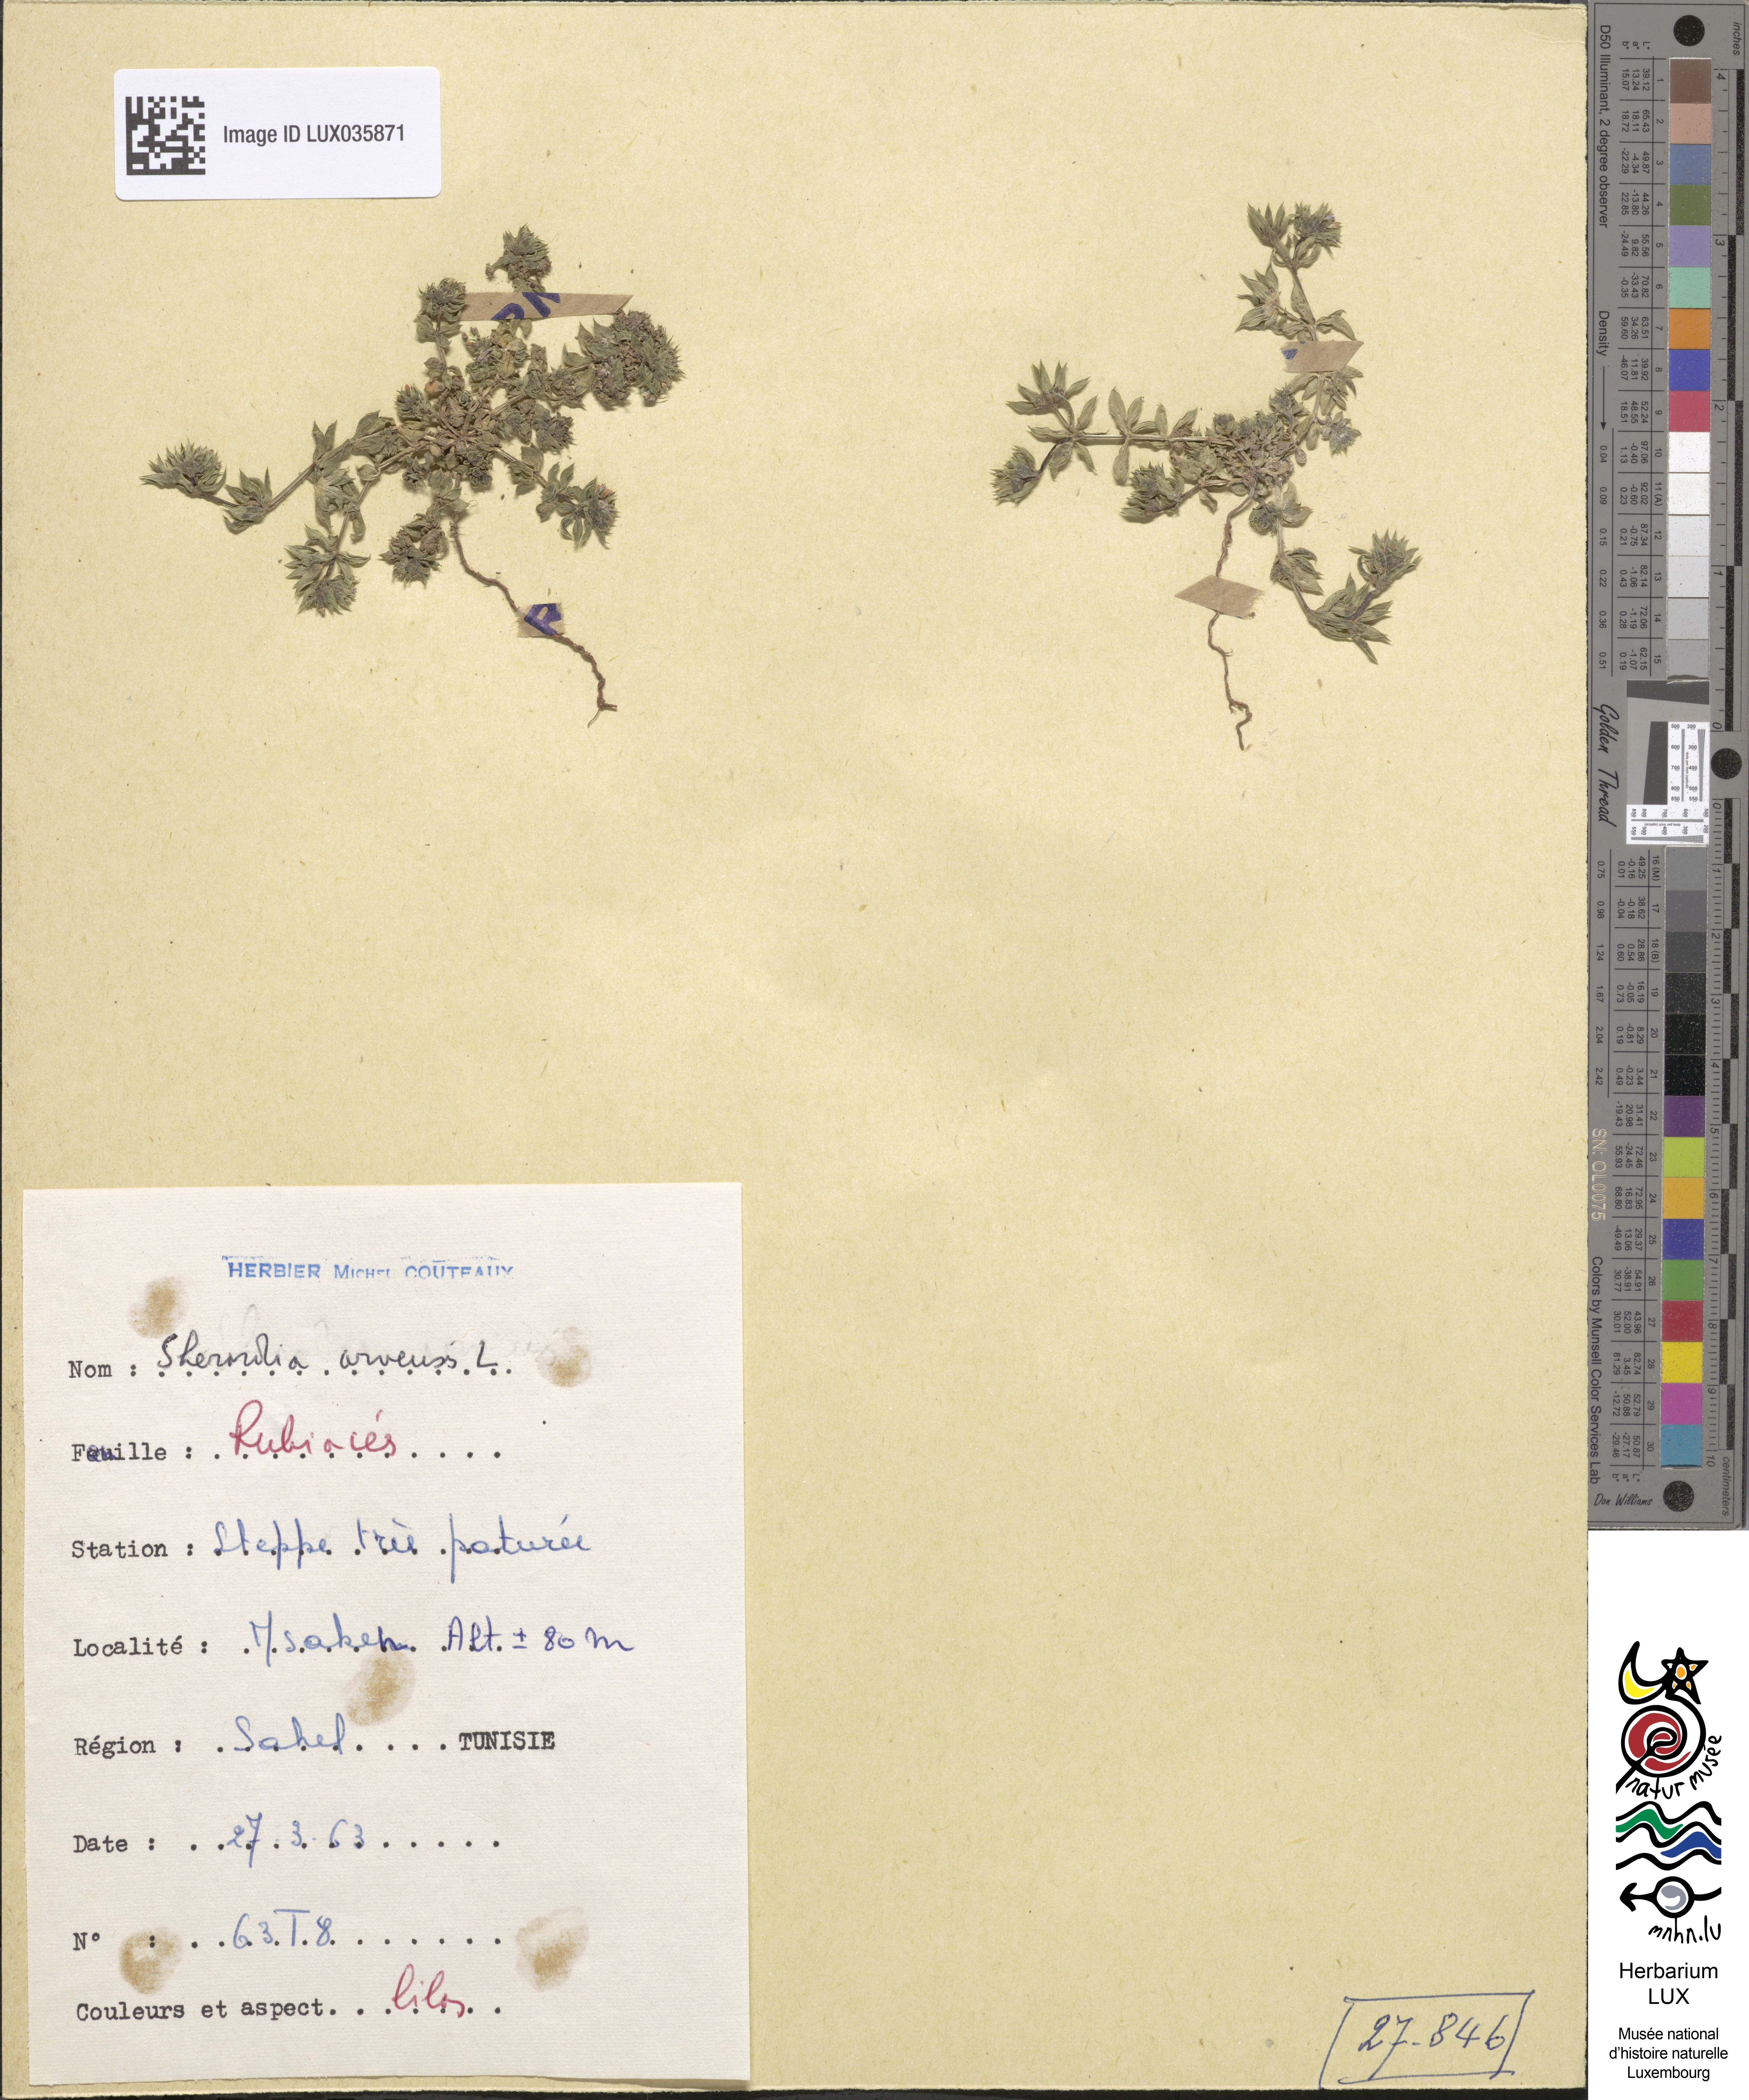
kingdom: Plantae
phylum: Tracheophyta
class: Magnoliopsida
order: Gentianales
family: Rubiaceae
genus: Sherardia
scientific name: Sherardia arvensis
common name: Field madder
